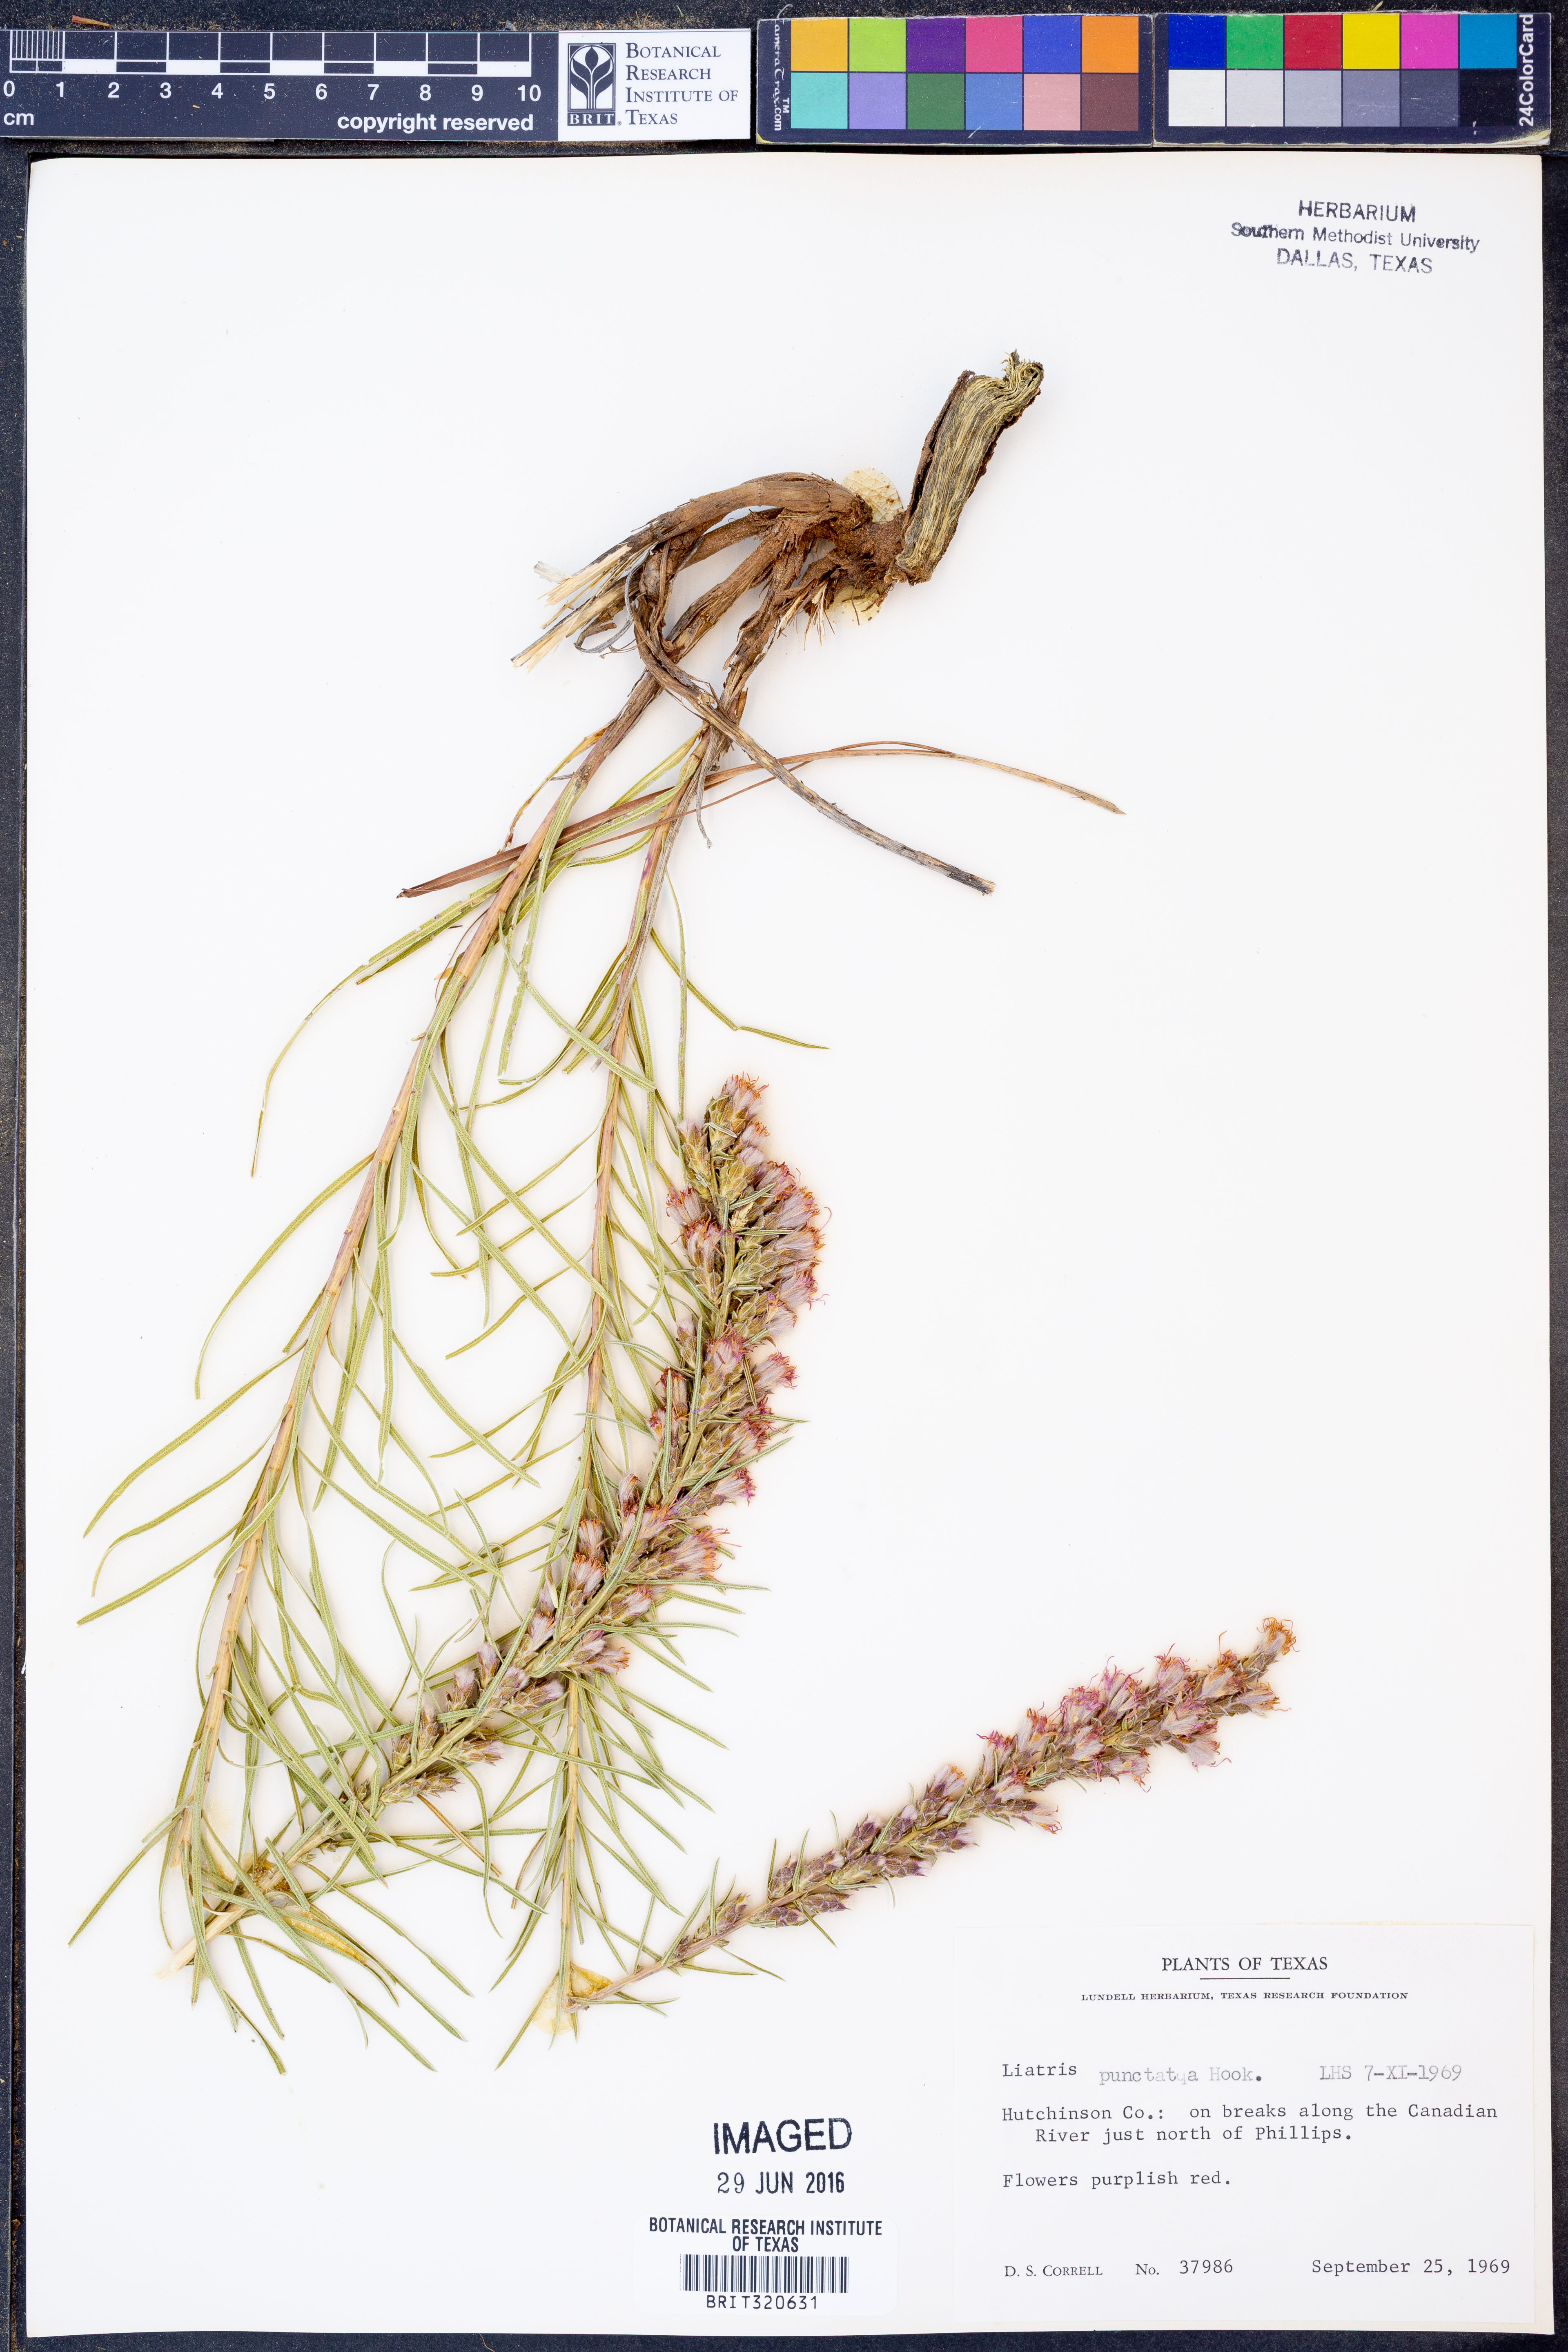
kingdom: Plantae
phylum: Tracheophyta
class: Magnoliopsida
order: Asterales
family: Asteraceae
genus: Liatris
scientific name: Liatris punctata
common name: Dotted gayfeather
